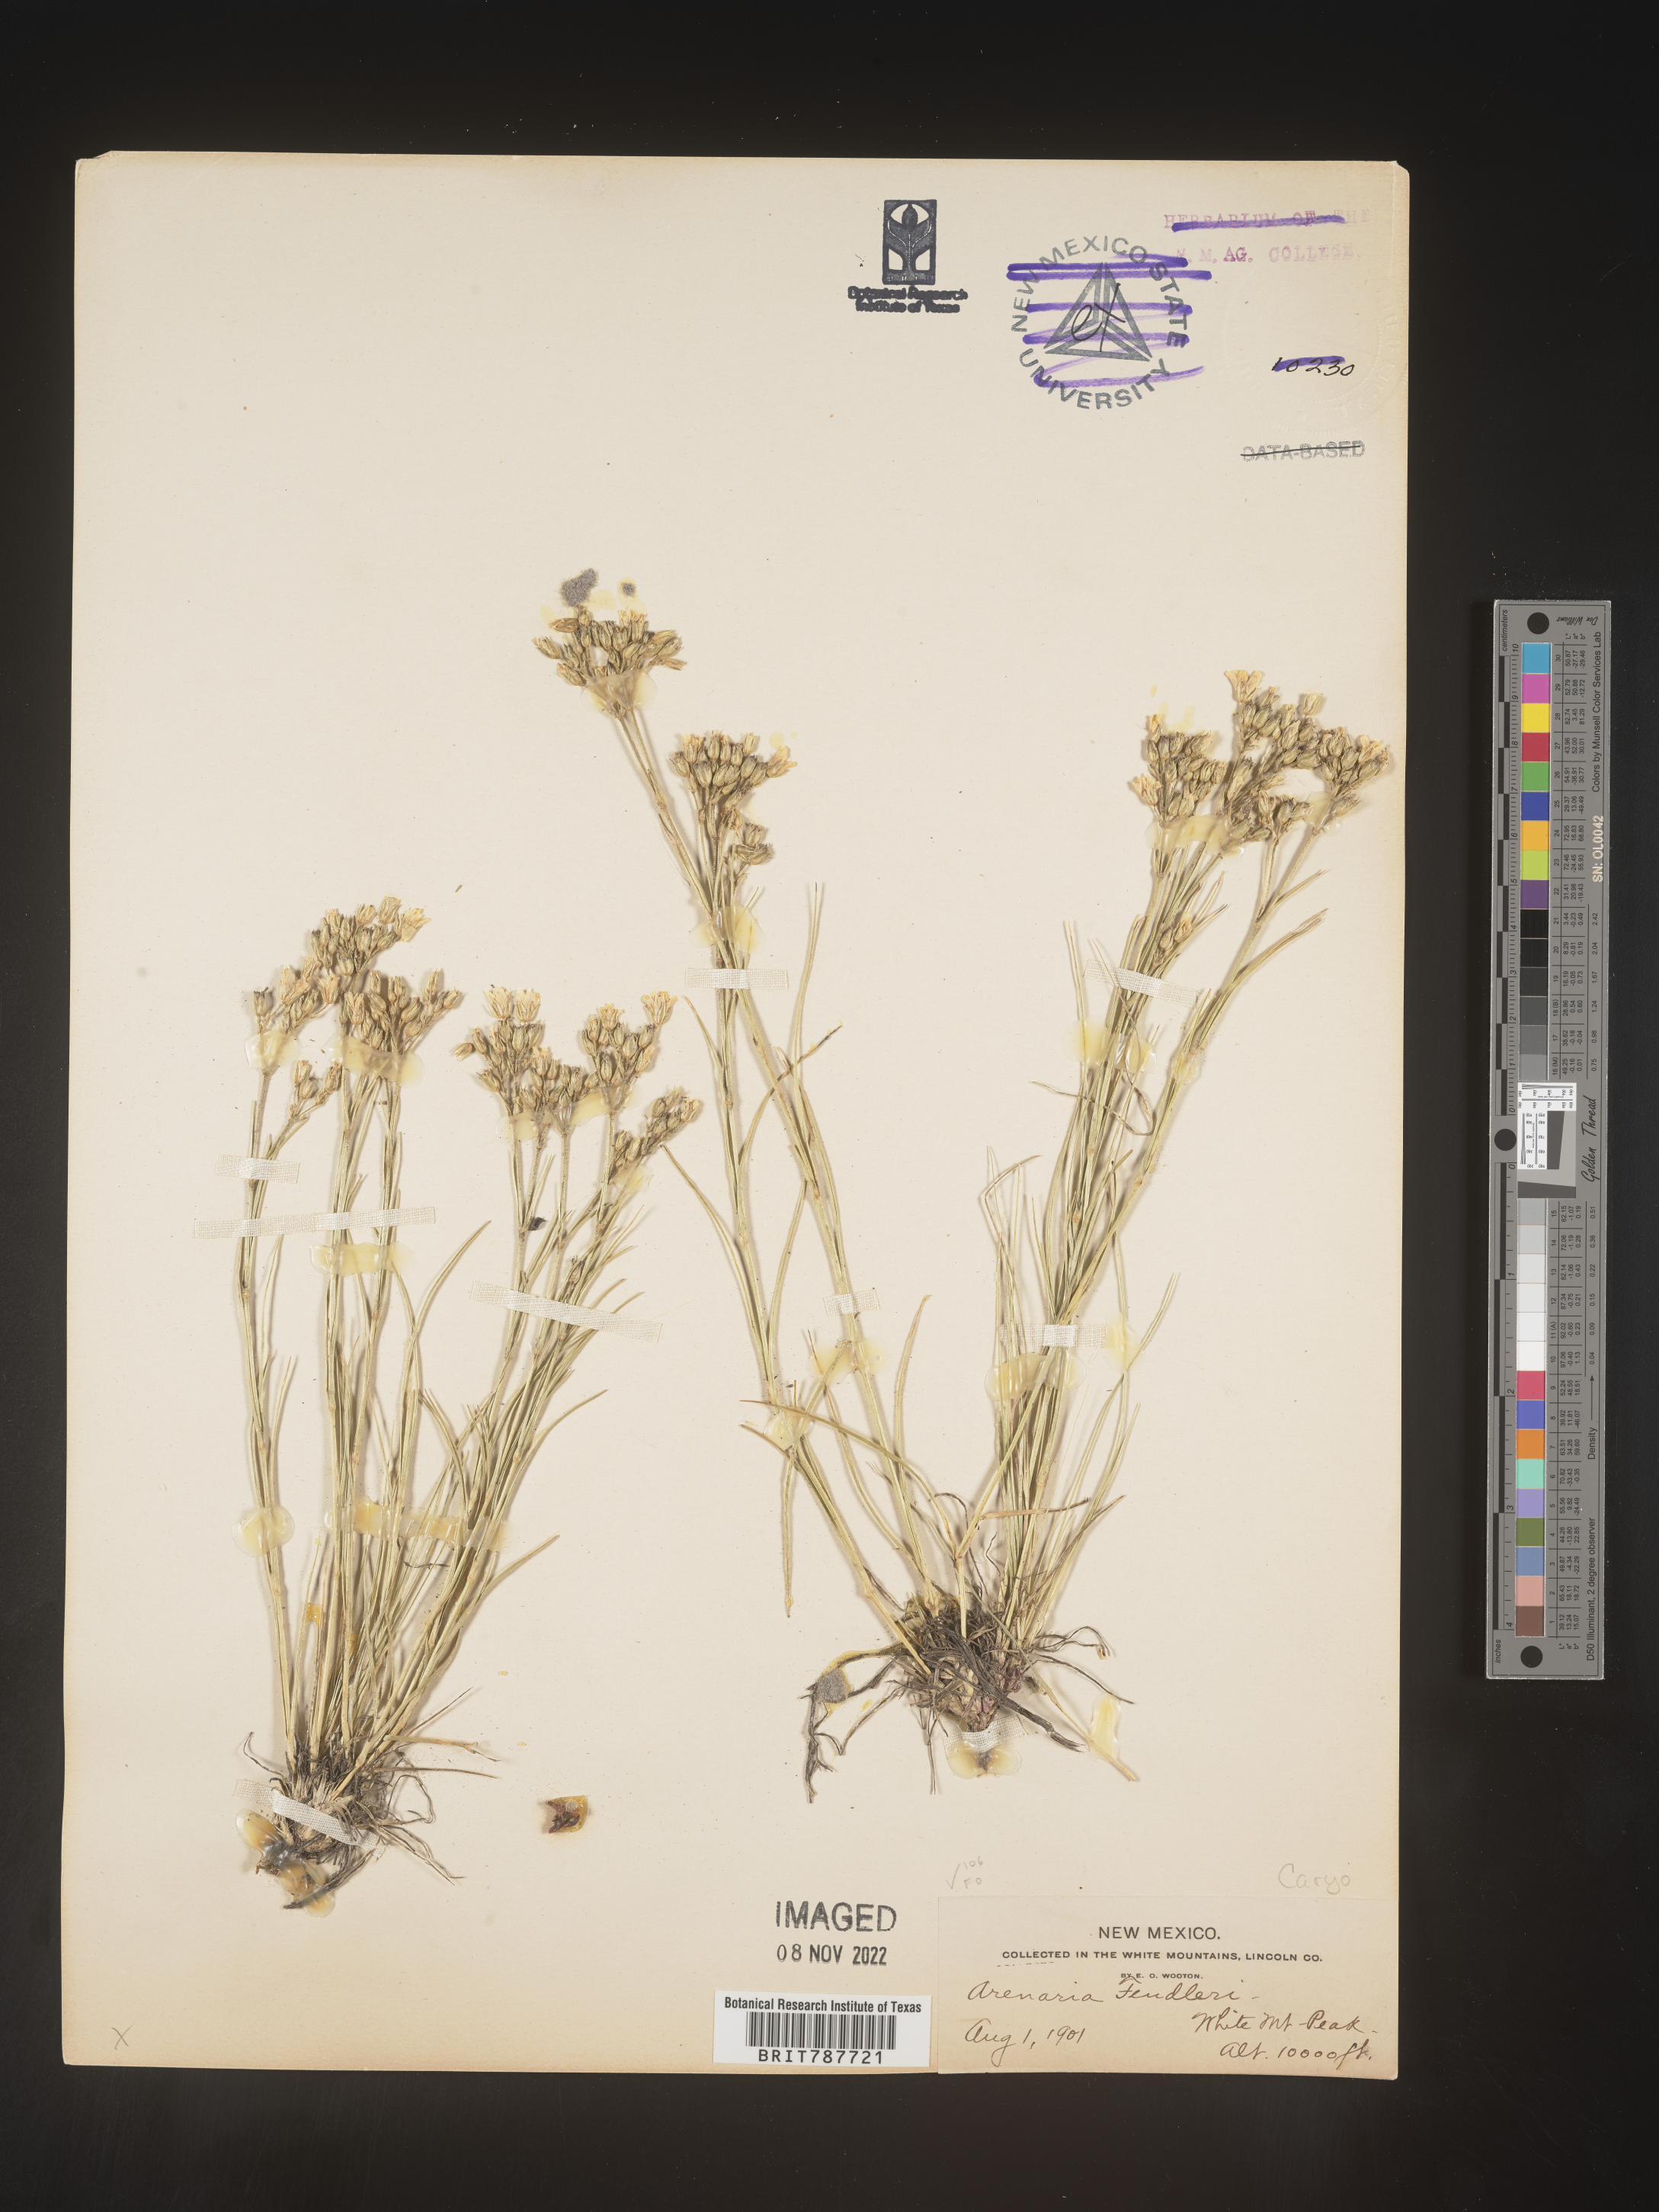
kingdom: Plantae
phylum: Tracheophyta
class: Magnoliopsida
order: Caryophyllales
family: Caryophyllaceae
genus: Arenaria
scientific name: Arenaria
